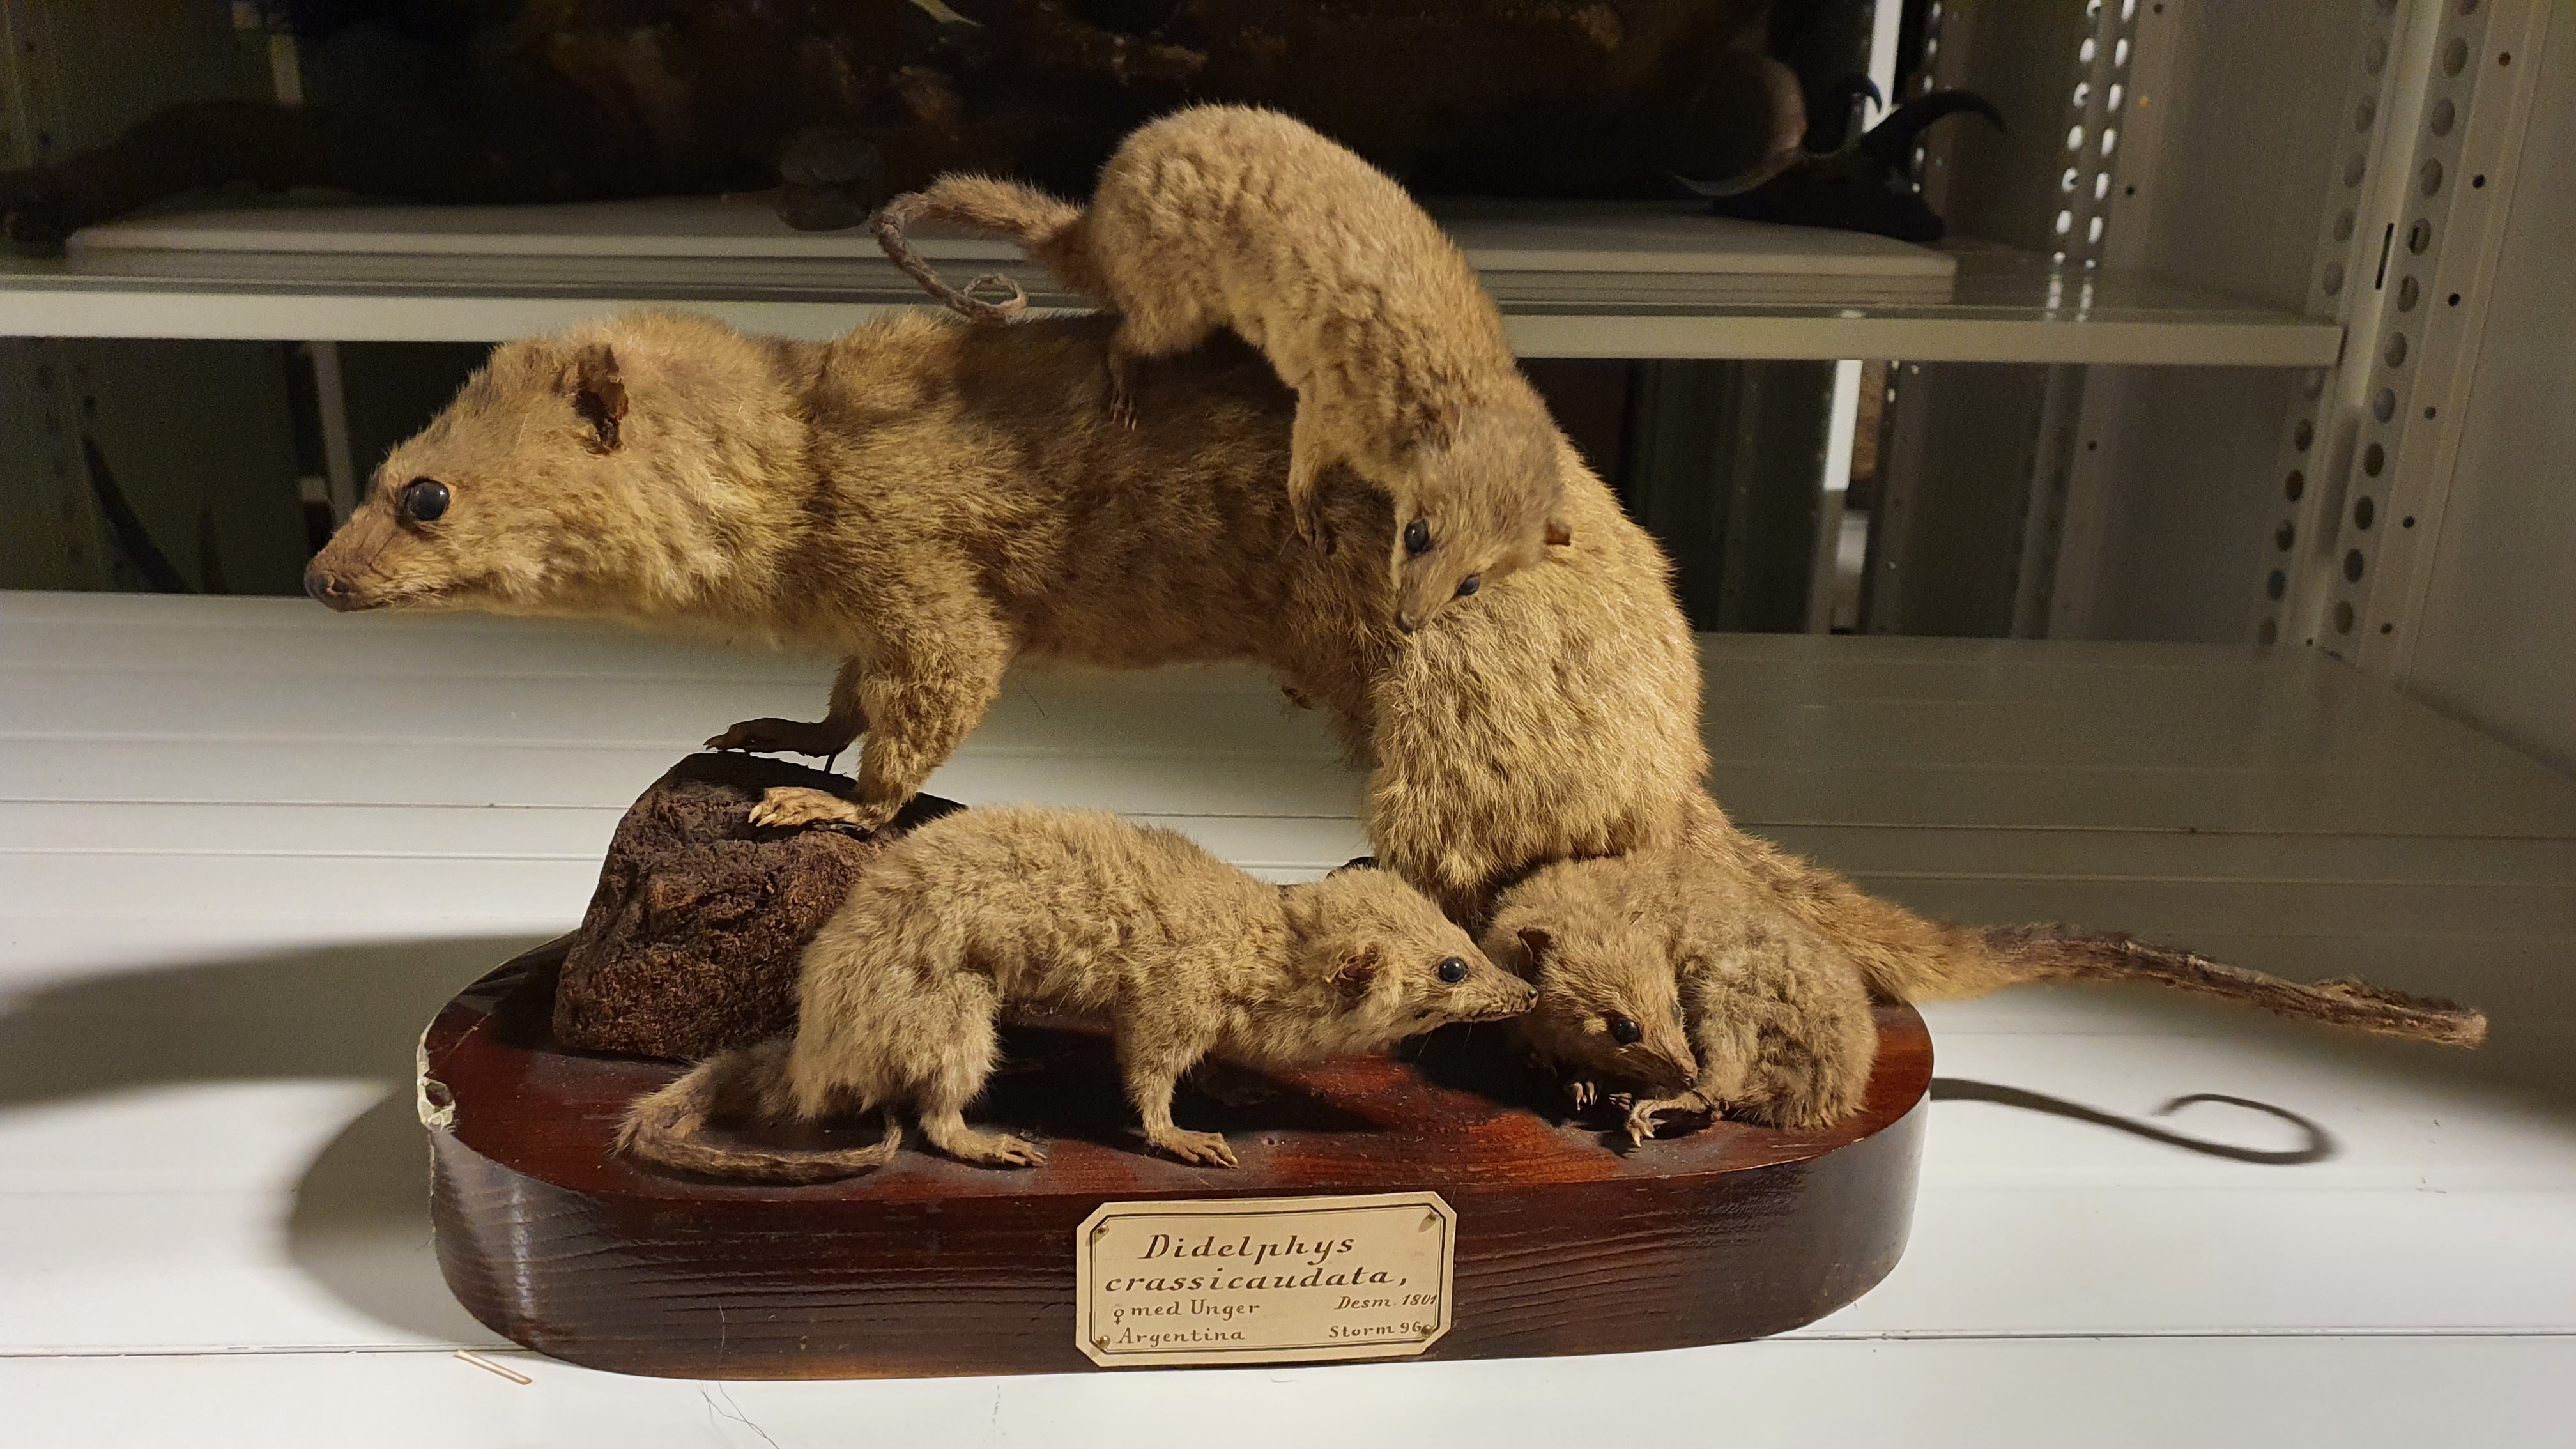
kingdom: Animalia
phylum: Chordata
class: Mammalia
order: Didelphimorphia
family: Didelphidae
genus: Lutreolina
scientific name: Lutreolina crassicaudata
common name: Lutrine opossum
